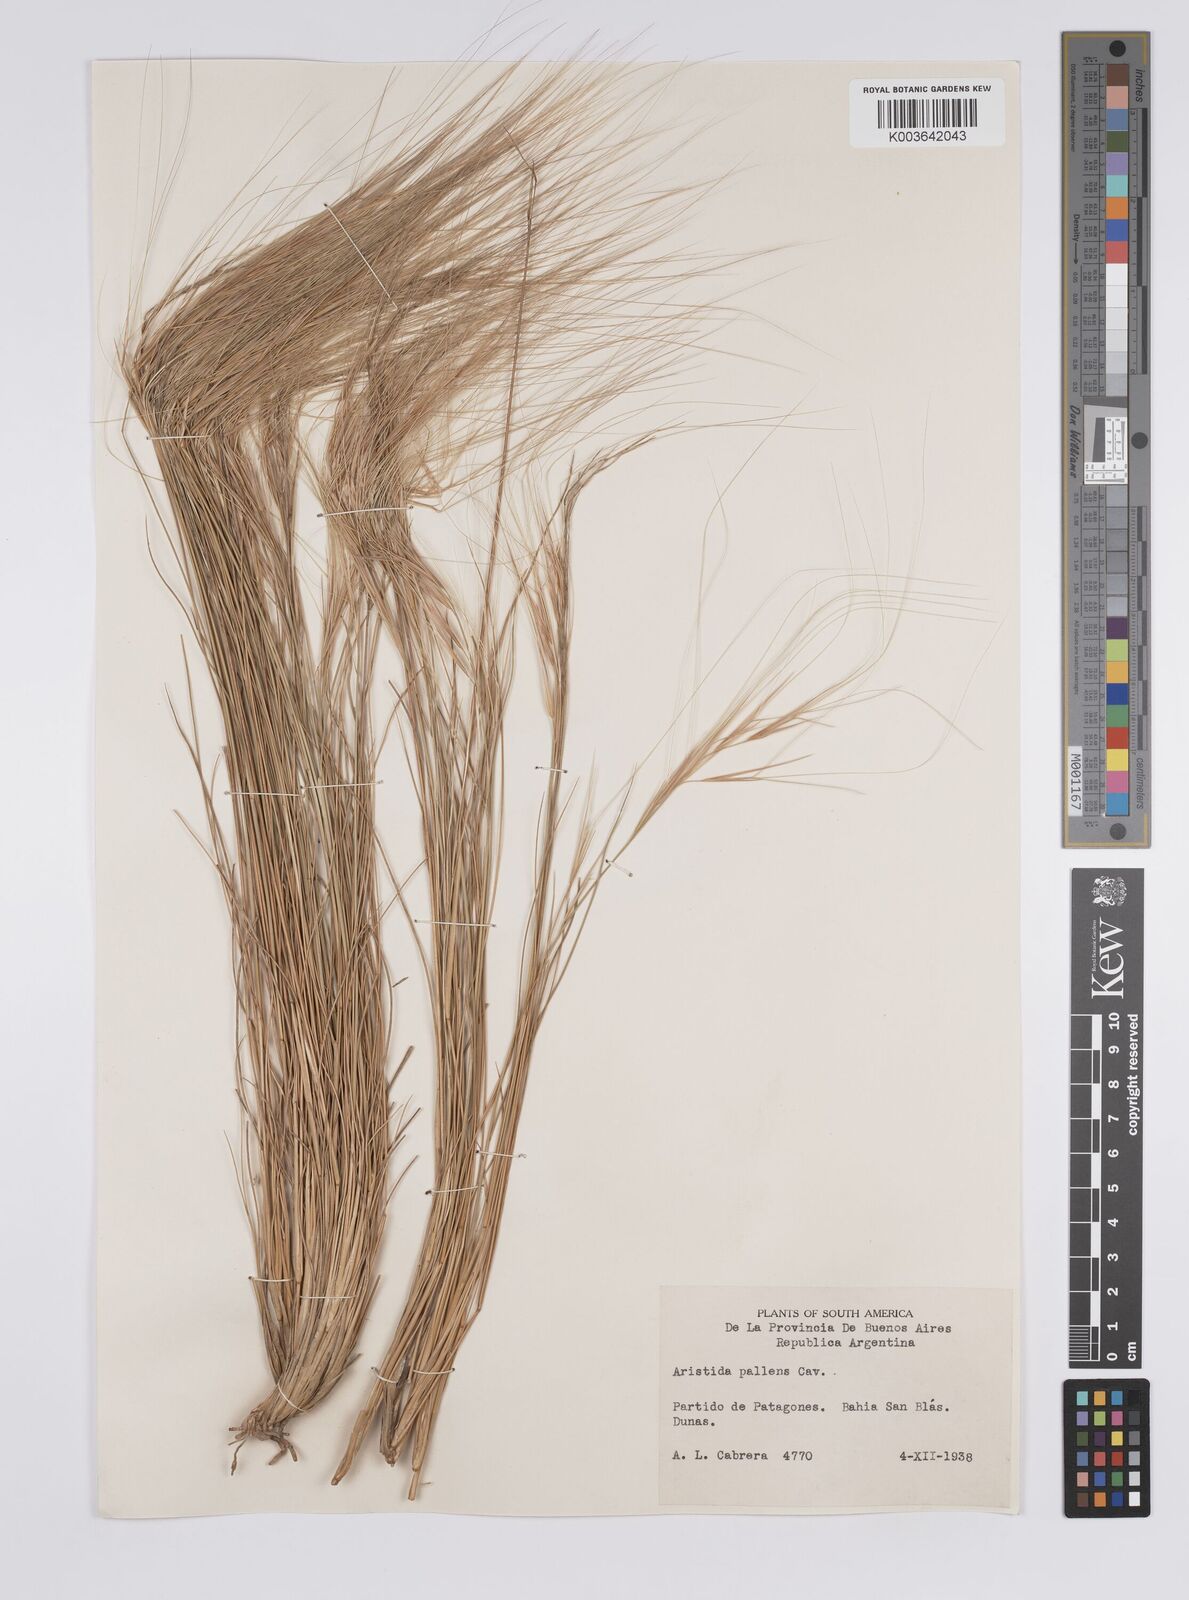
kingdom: Plantae
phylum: Tracheophyta
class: Liliopsida
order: Poales
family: Poaceae
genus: Aristida
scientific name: Aristida pallens
